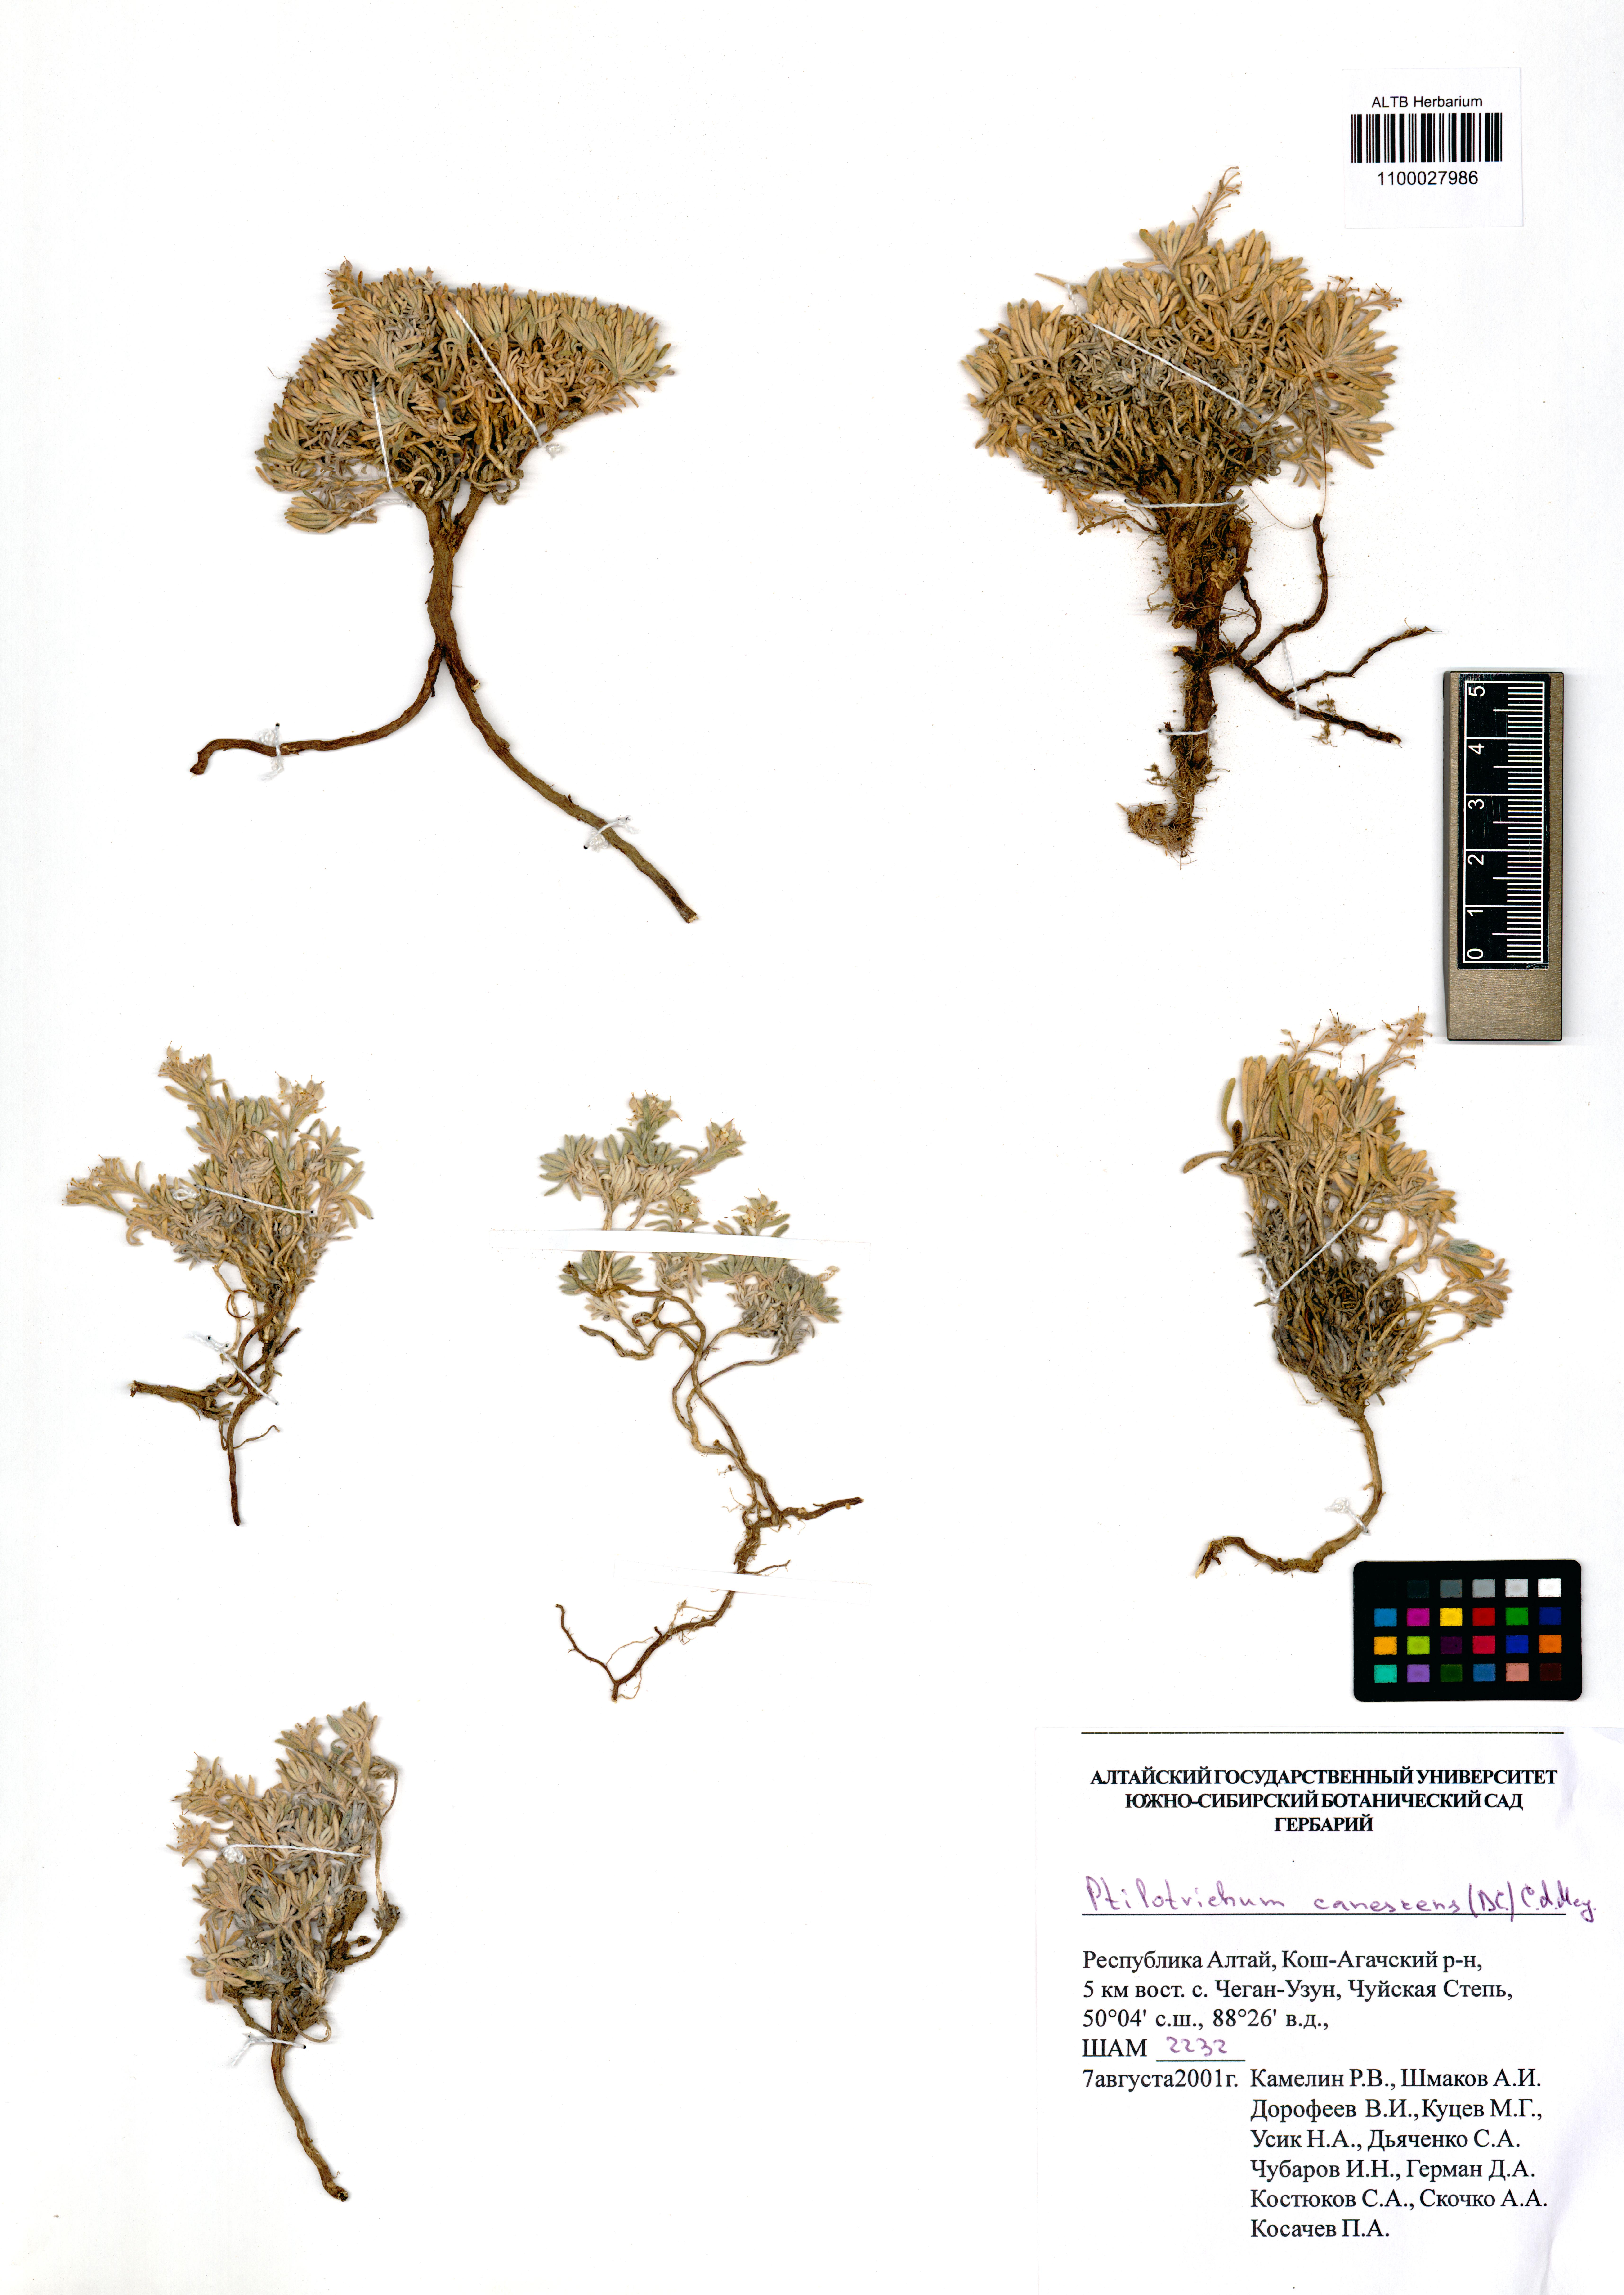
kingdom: Plantae
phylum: Tracheophyta
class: Magnoliopsida
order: Brassicales
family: Brassicaceae
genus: Stevenia
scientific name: Stevenia canescens
